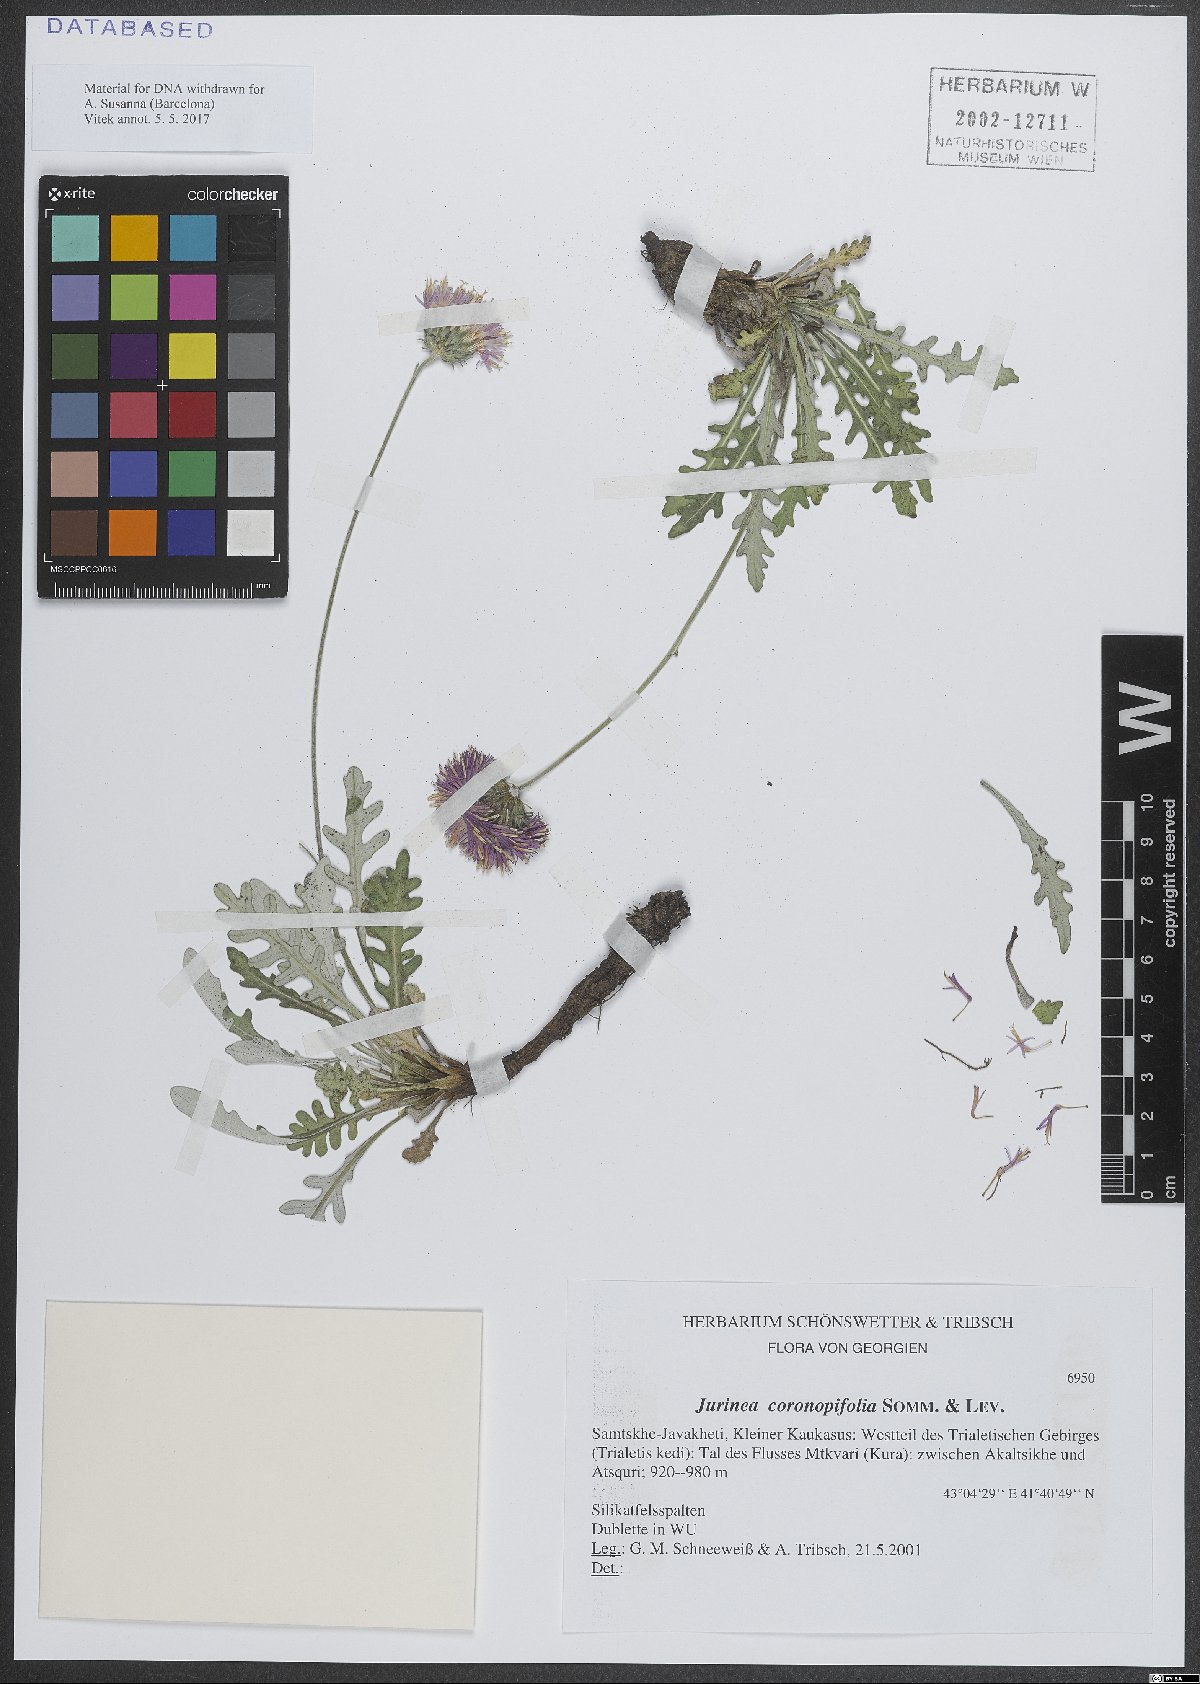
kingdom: Plantae
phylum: Tracheophyta
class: Magnoliopsida
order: Asterales
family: Asteraceae
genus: Jurinea
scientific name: Jurinea coronopifolia
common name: Wart-cress-leaved jurinea
